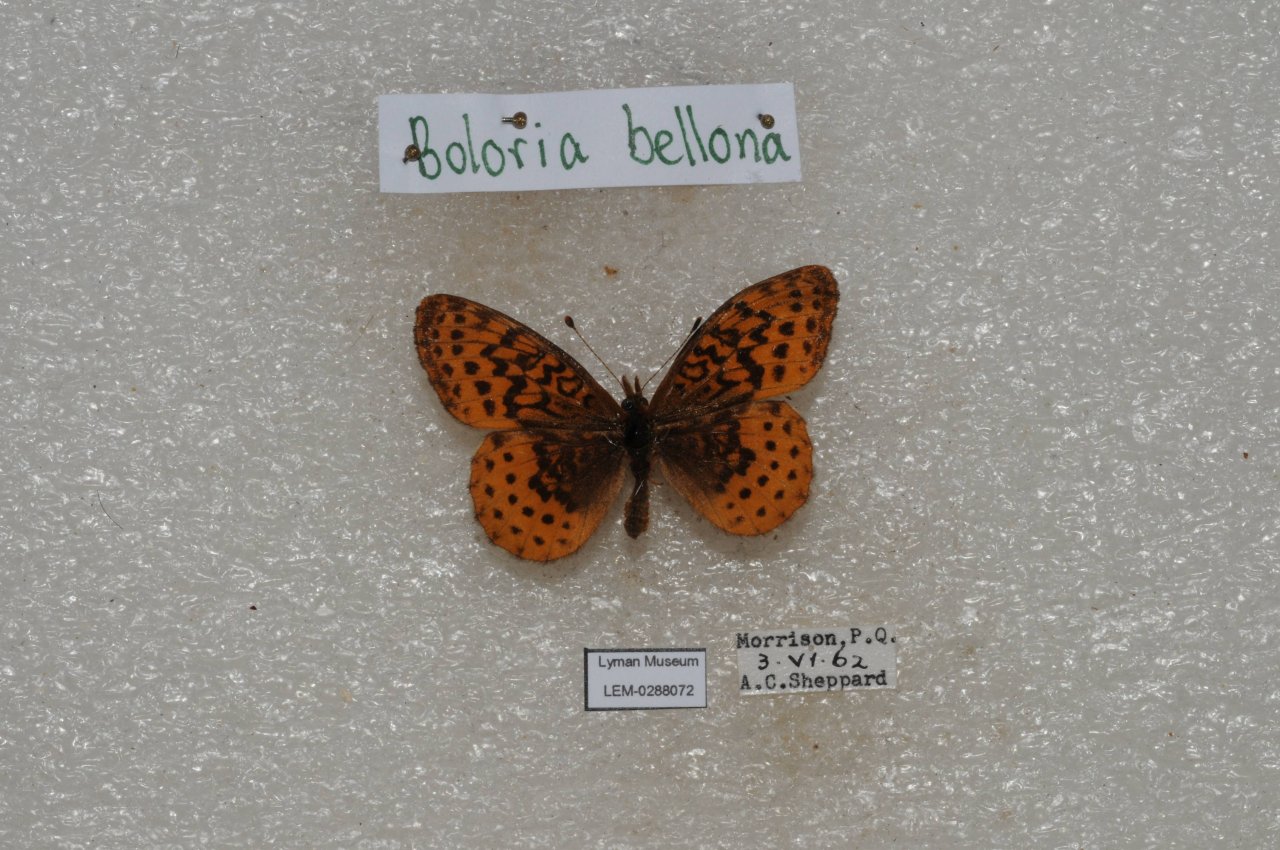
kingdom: Animalia
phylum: Arthropoda
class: Insecta
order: Lepidoptera
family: Nymphalidae
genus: Clossiana
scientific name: Clossiana toddi
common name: Meadow Fritillary
